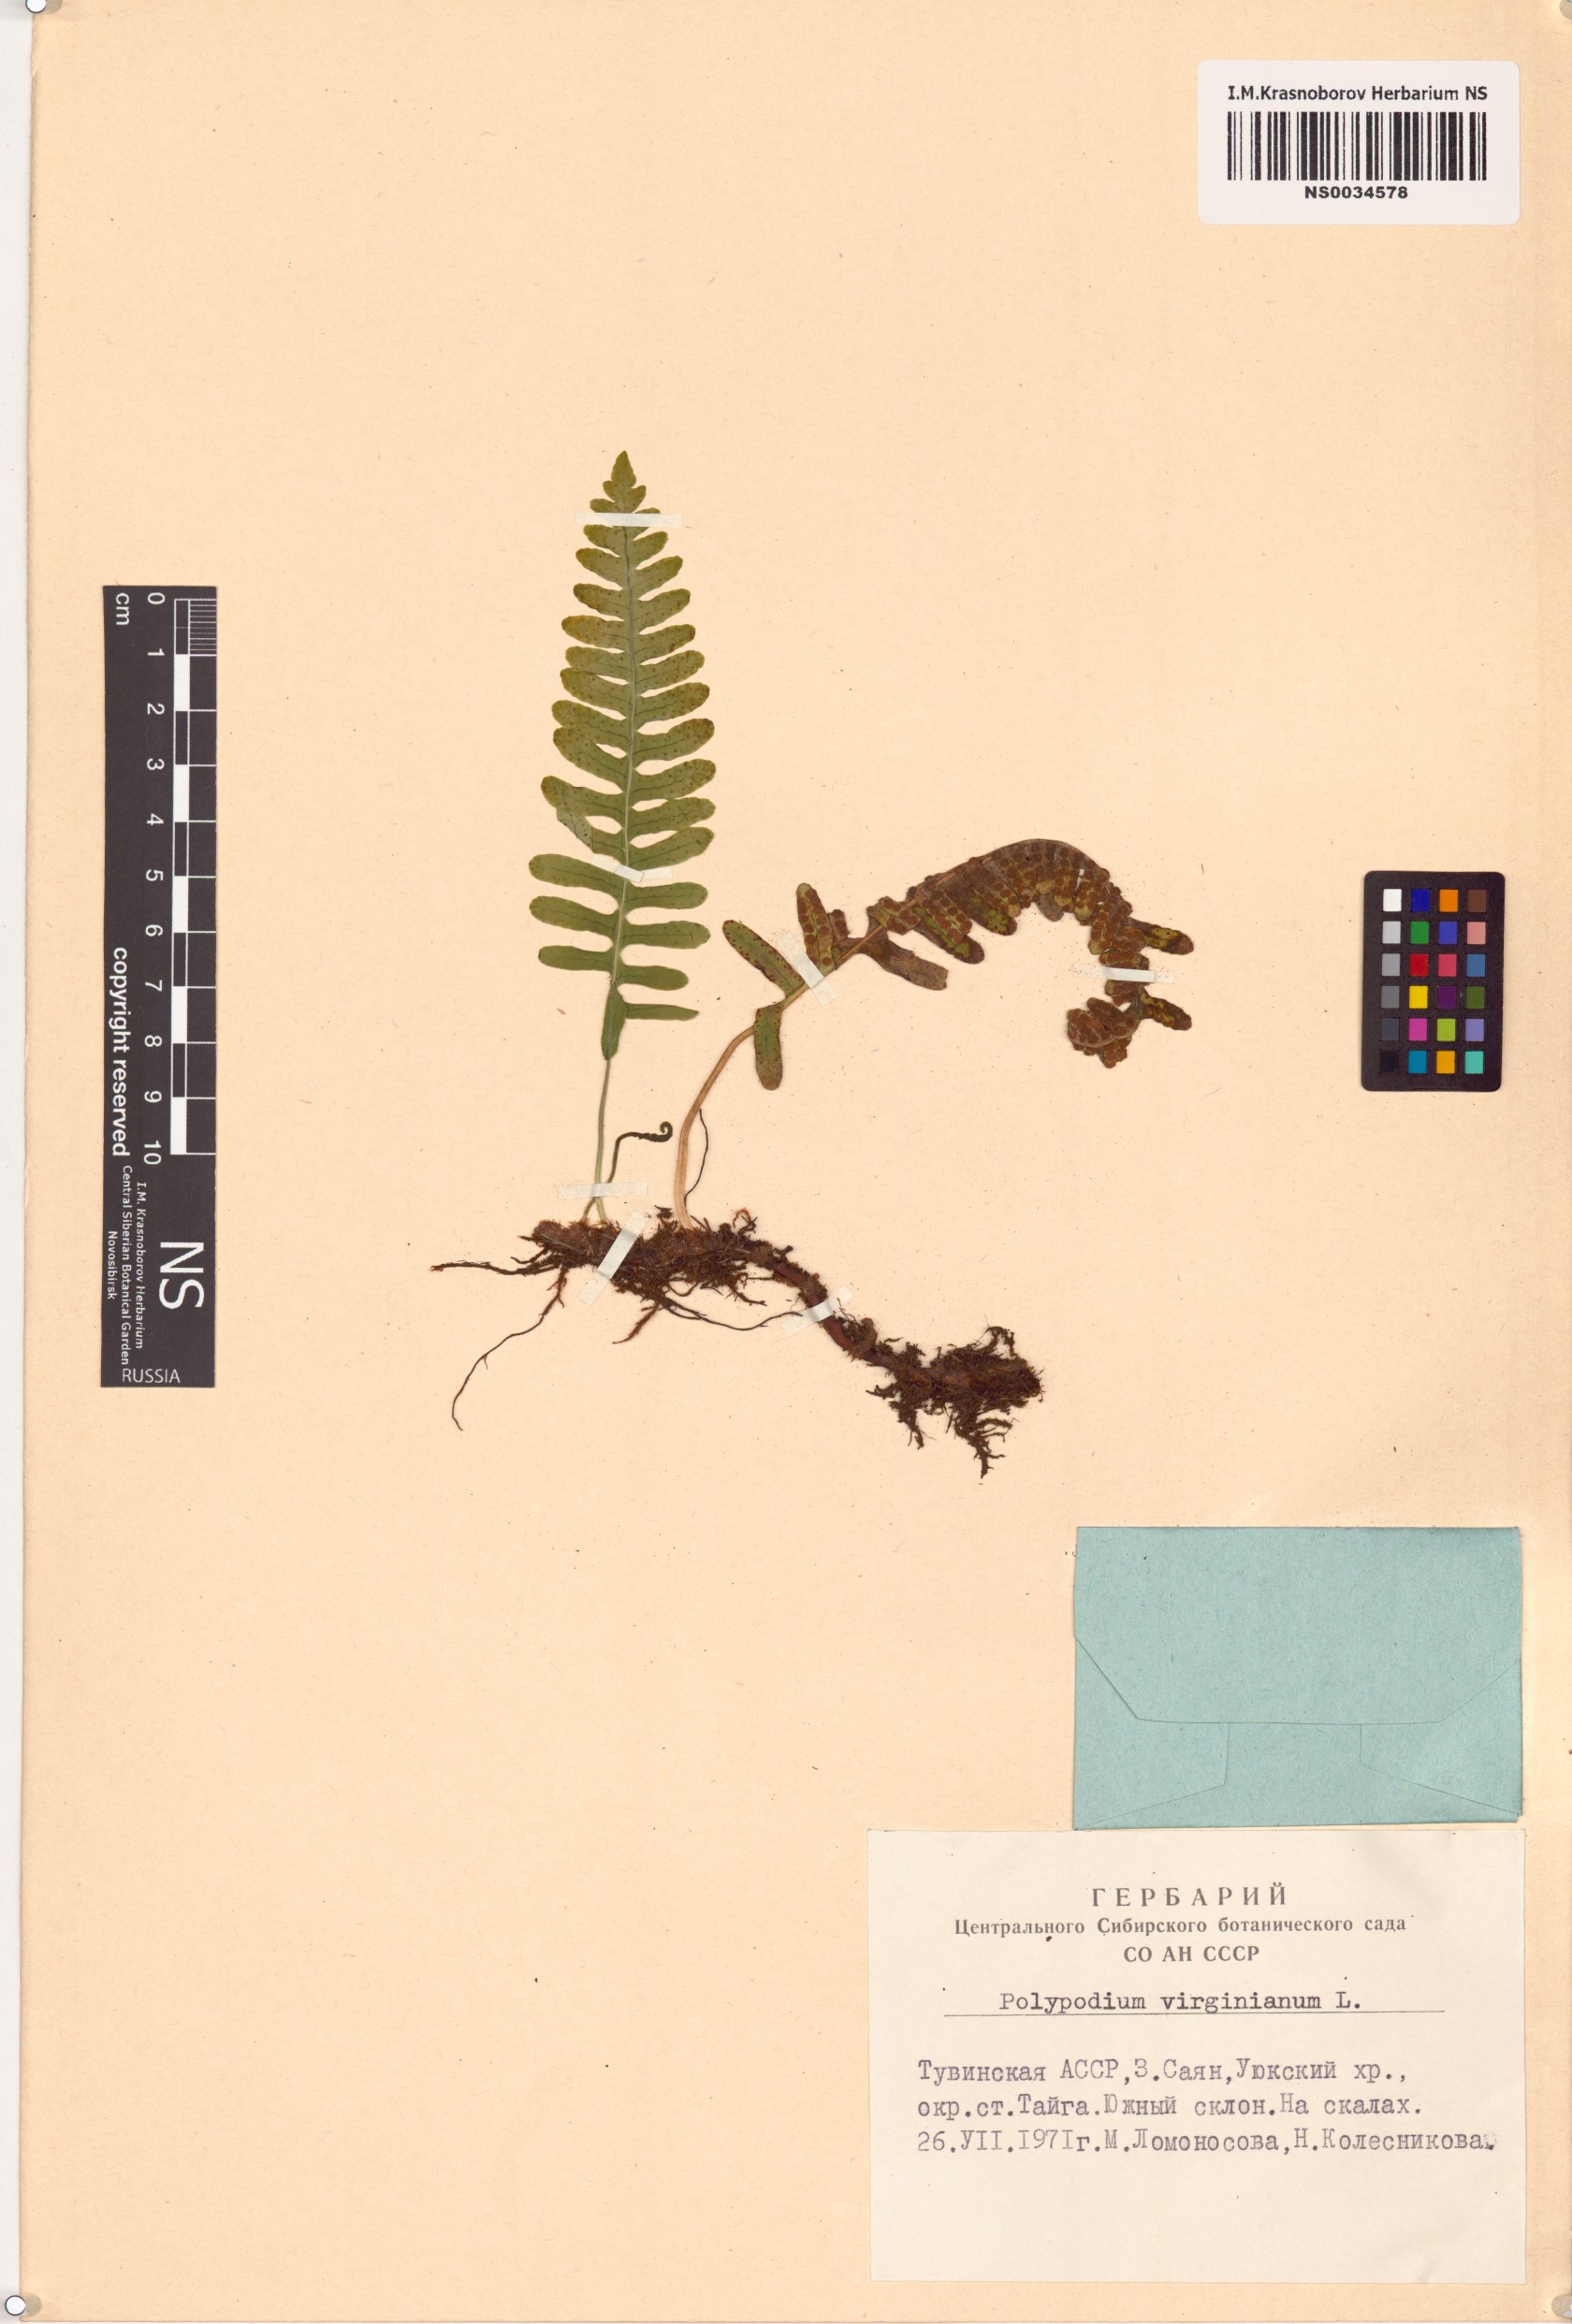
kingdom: Plantae
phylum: Tracheophyta
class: Polypodiopsida
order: Polypodiales
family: Polypodiaceae
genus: Polypodium
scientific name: Polypodium virginianum
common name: American wall fern
